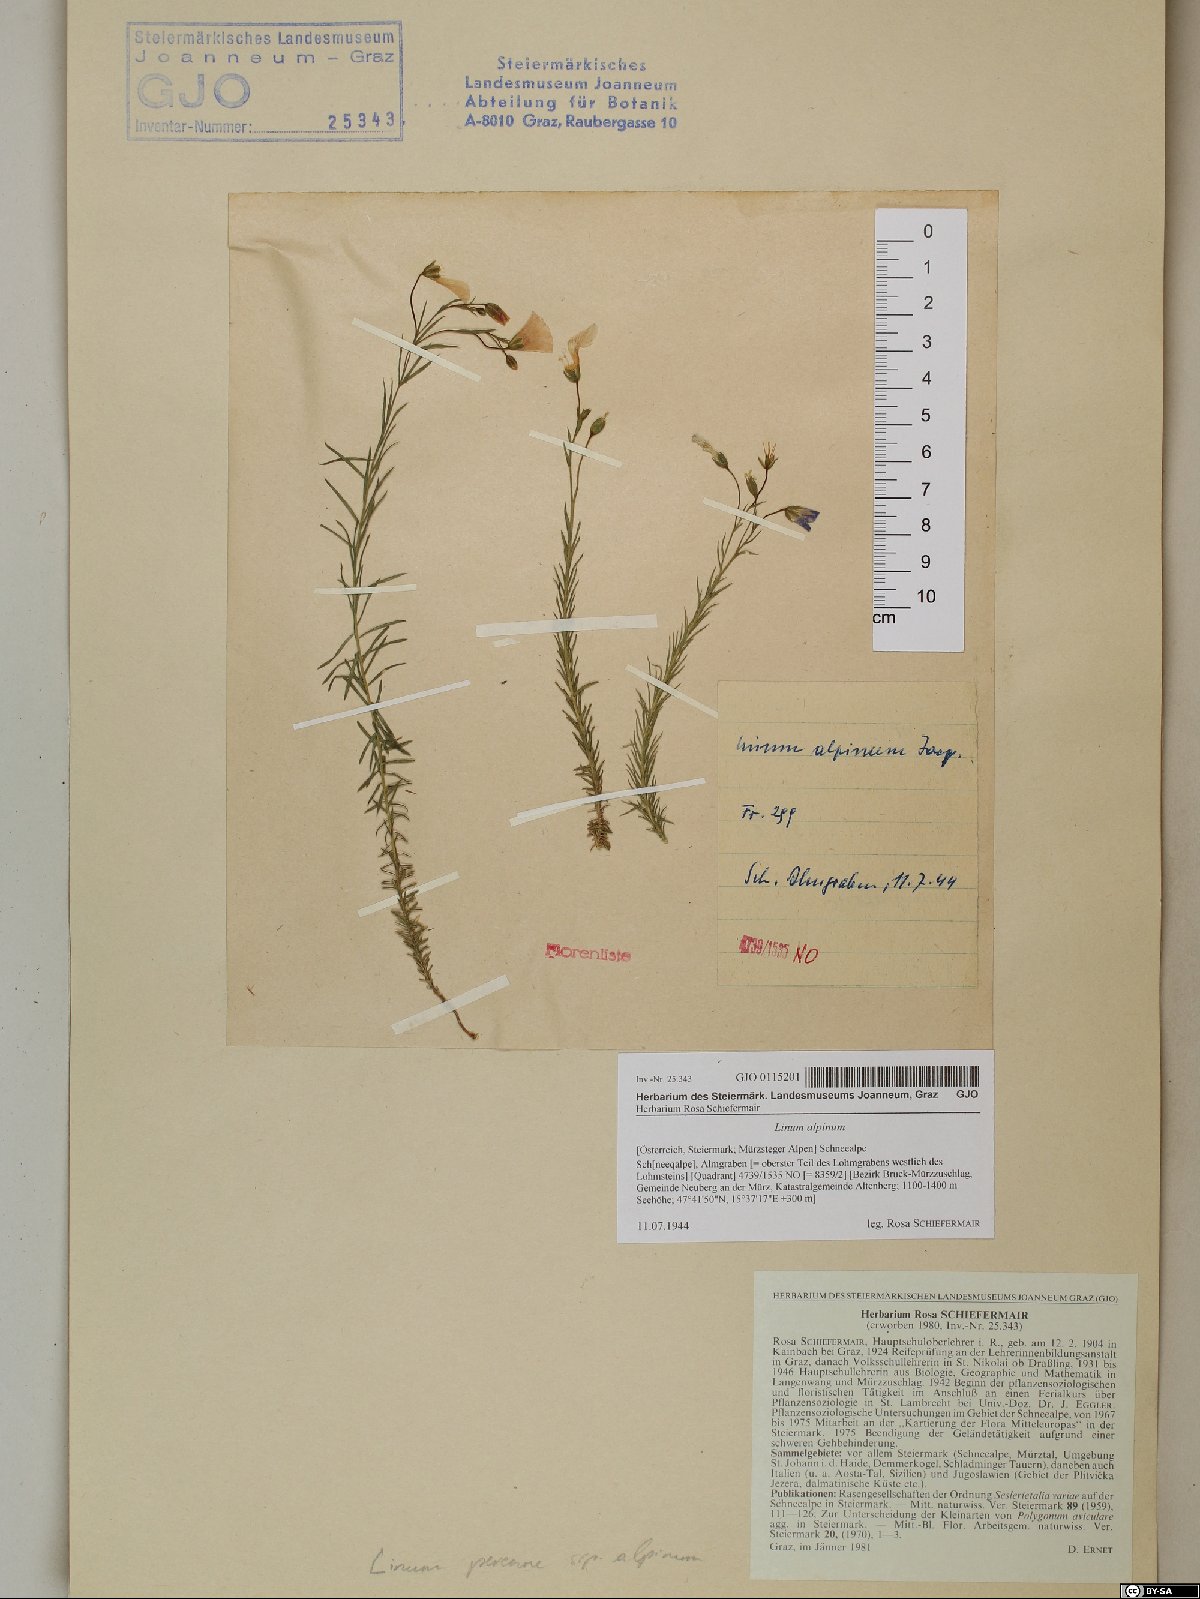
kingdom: Plantae
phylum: Tracheophyta
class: Magnoliopsida
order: Malpighiales
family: Linaceae
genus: Linum
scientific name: Linum alpinum
